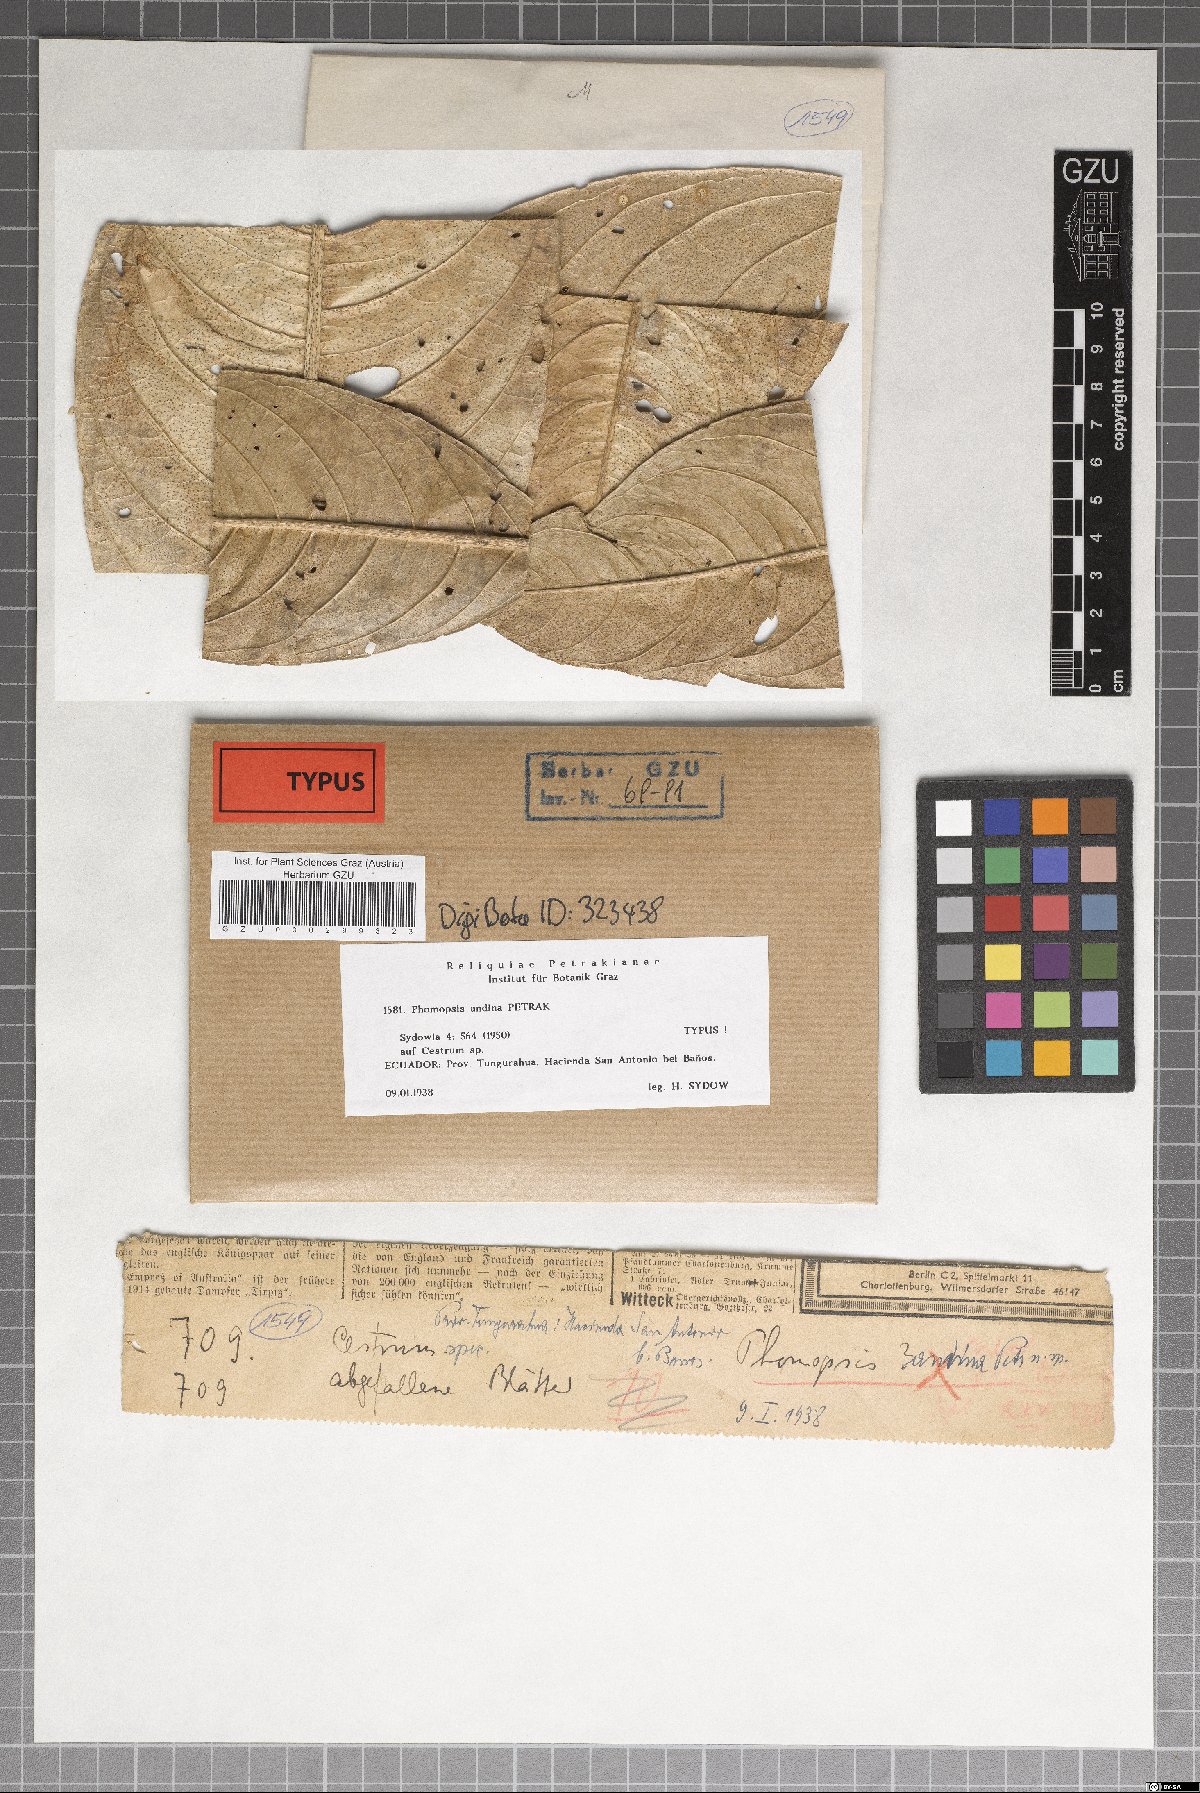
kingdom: Fungi
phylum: Ascomycota
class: Sordariomycetes
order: Diaporthales
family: Diaporthaceae
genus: Phomopsis
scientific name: Phomopsis andina
